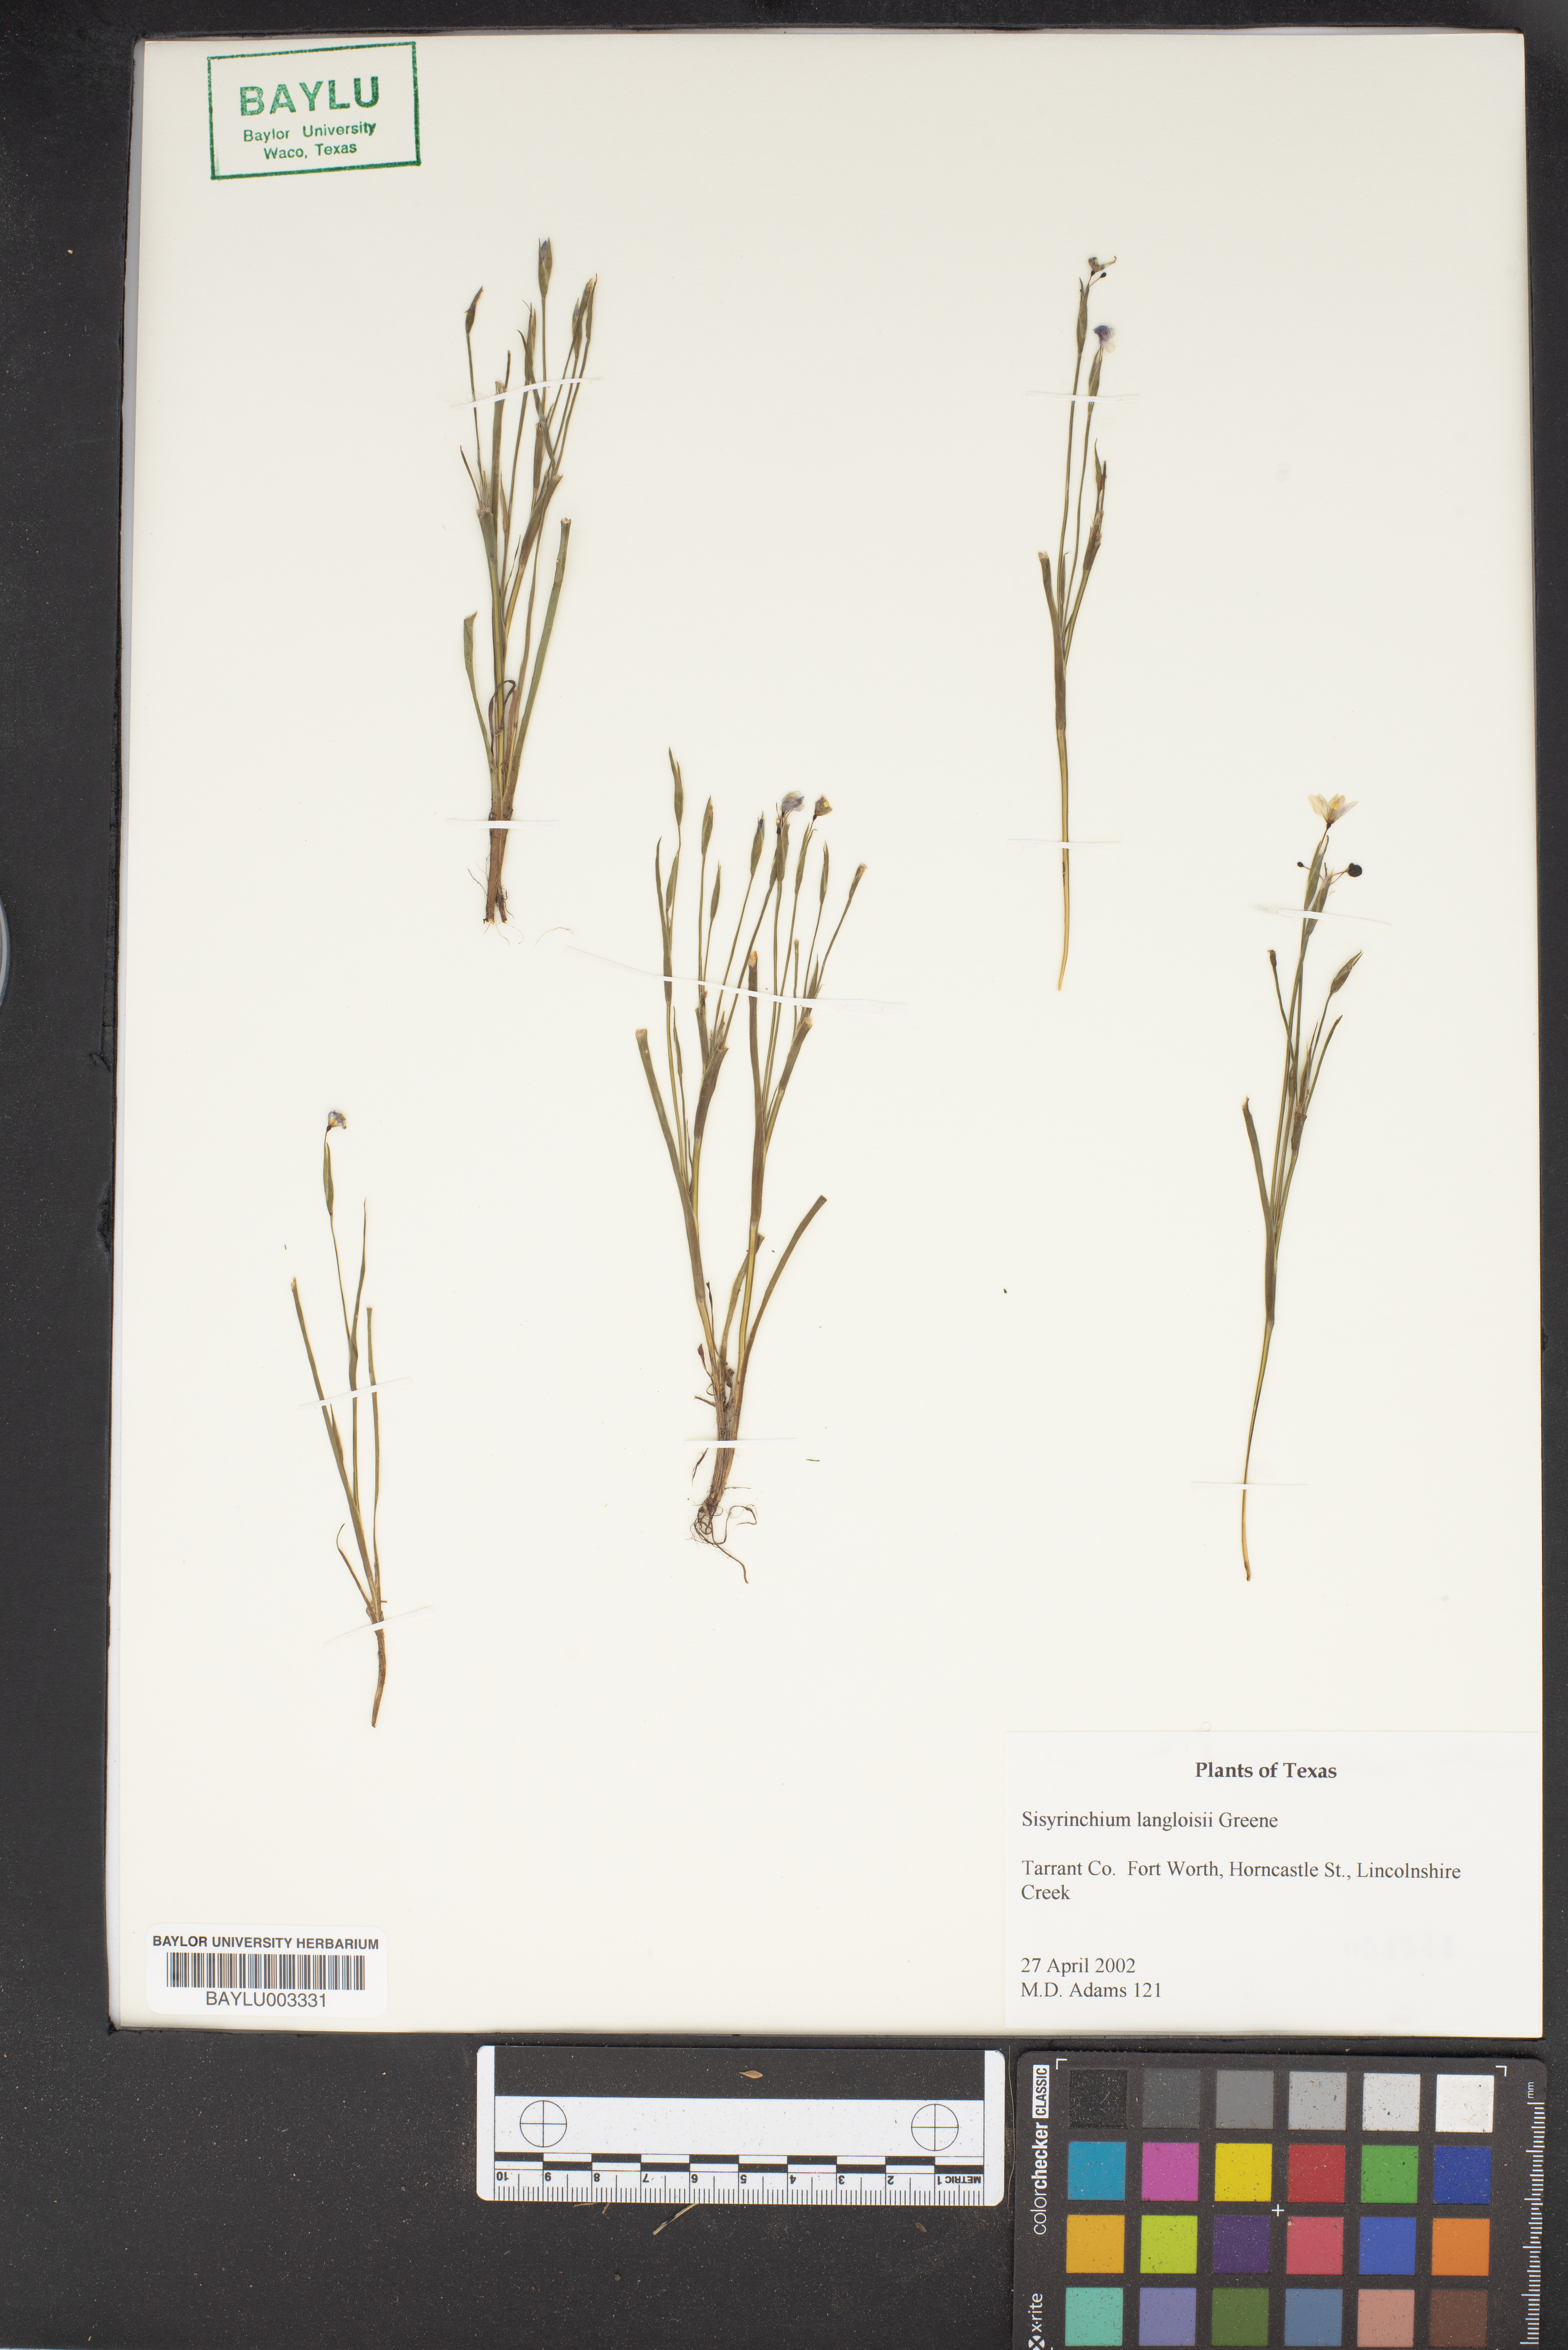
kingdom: Plantae
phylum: Tracheophyta
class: Liliopsida
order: Asparagales
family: Iridaceae
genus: Sisyrinchium
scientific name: Sisyrinchium langloisii
